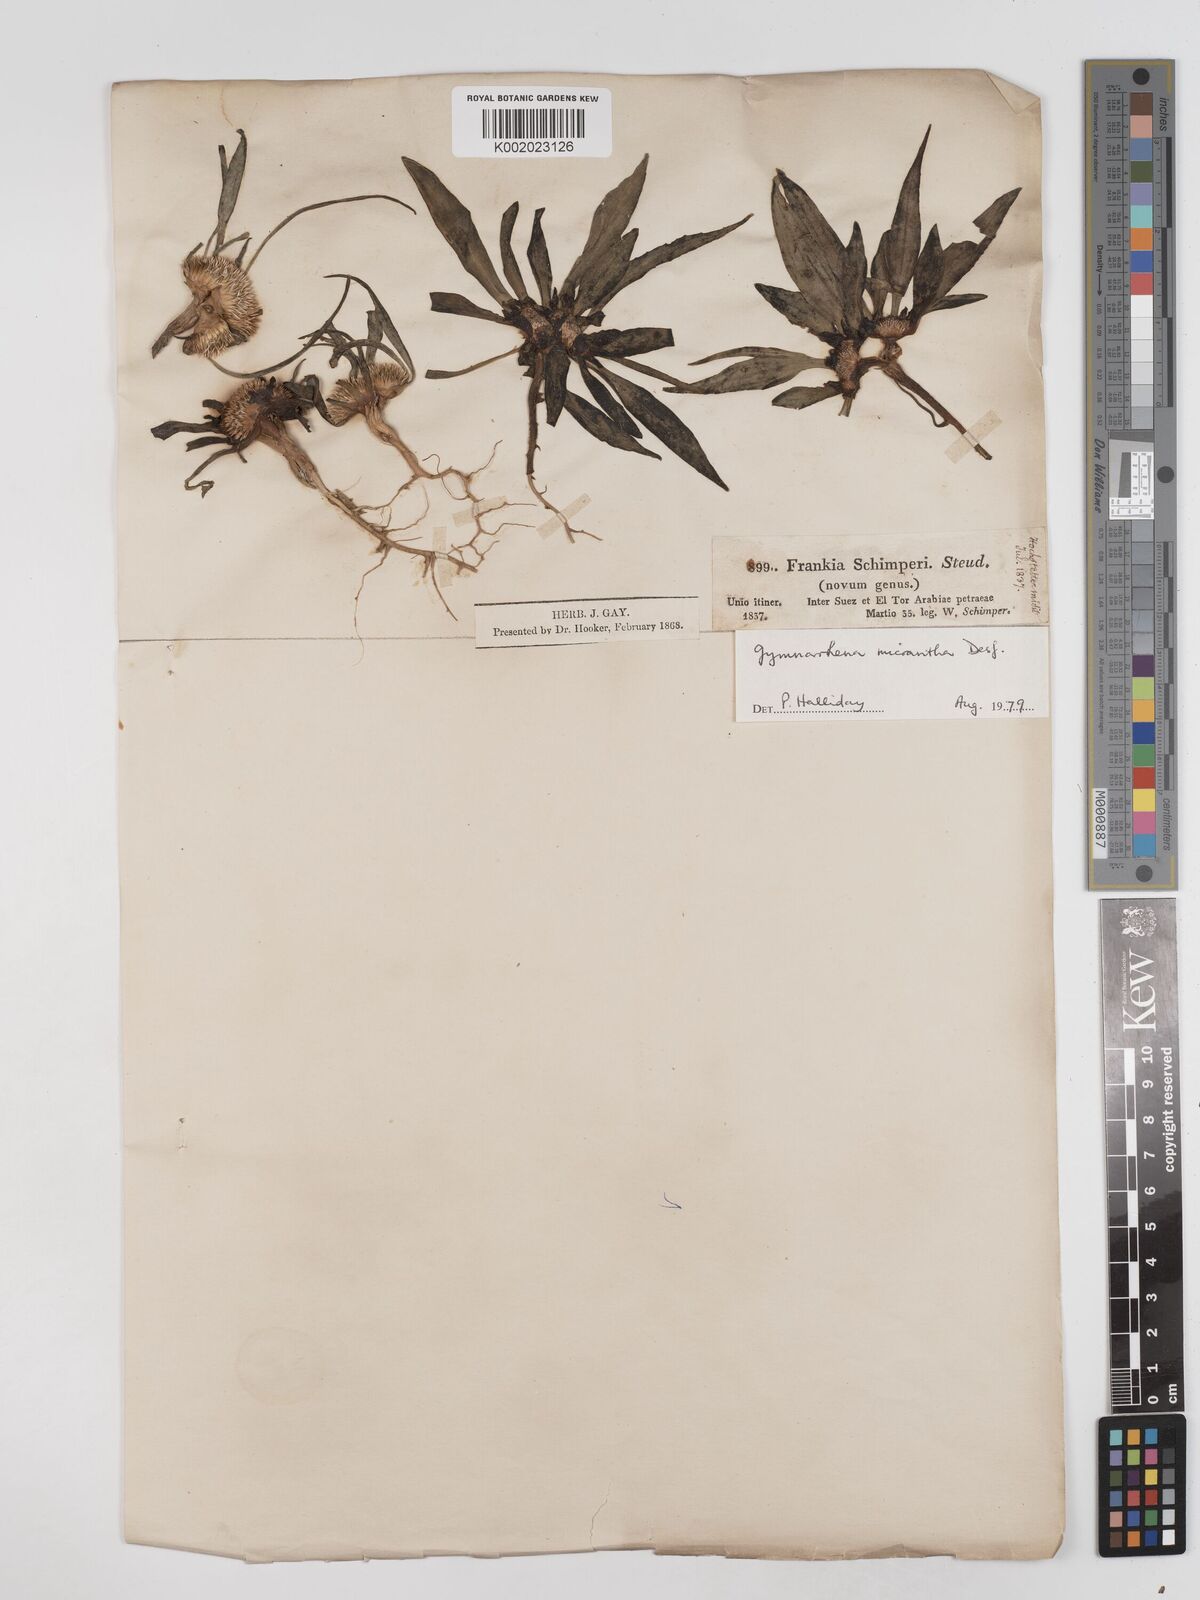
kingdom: Plantae
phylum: Tracheophyta
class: Magnoliopsida
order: Asterales
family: Asteraceae
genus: Gymnarrhena
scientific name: Gymnarrhena micrantha
